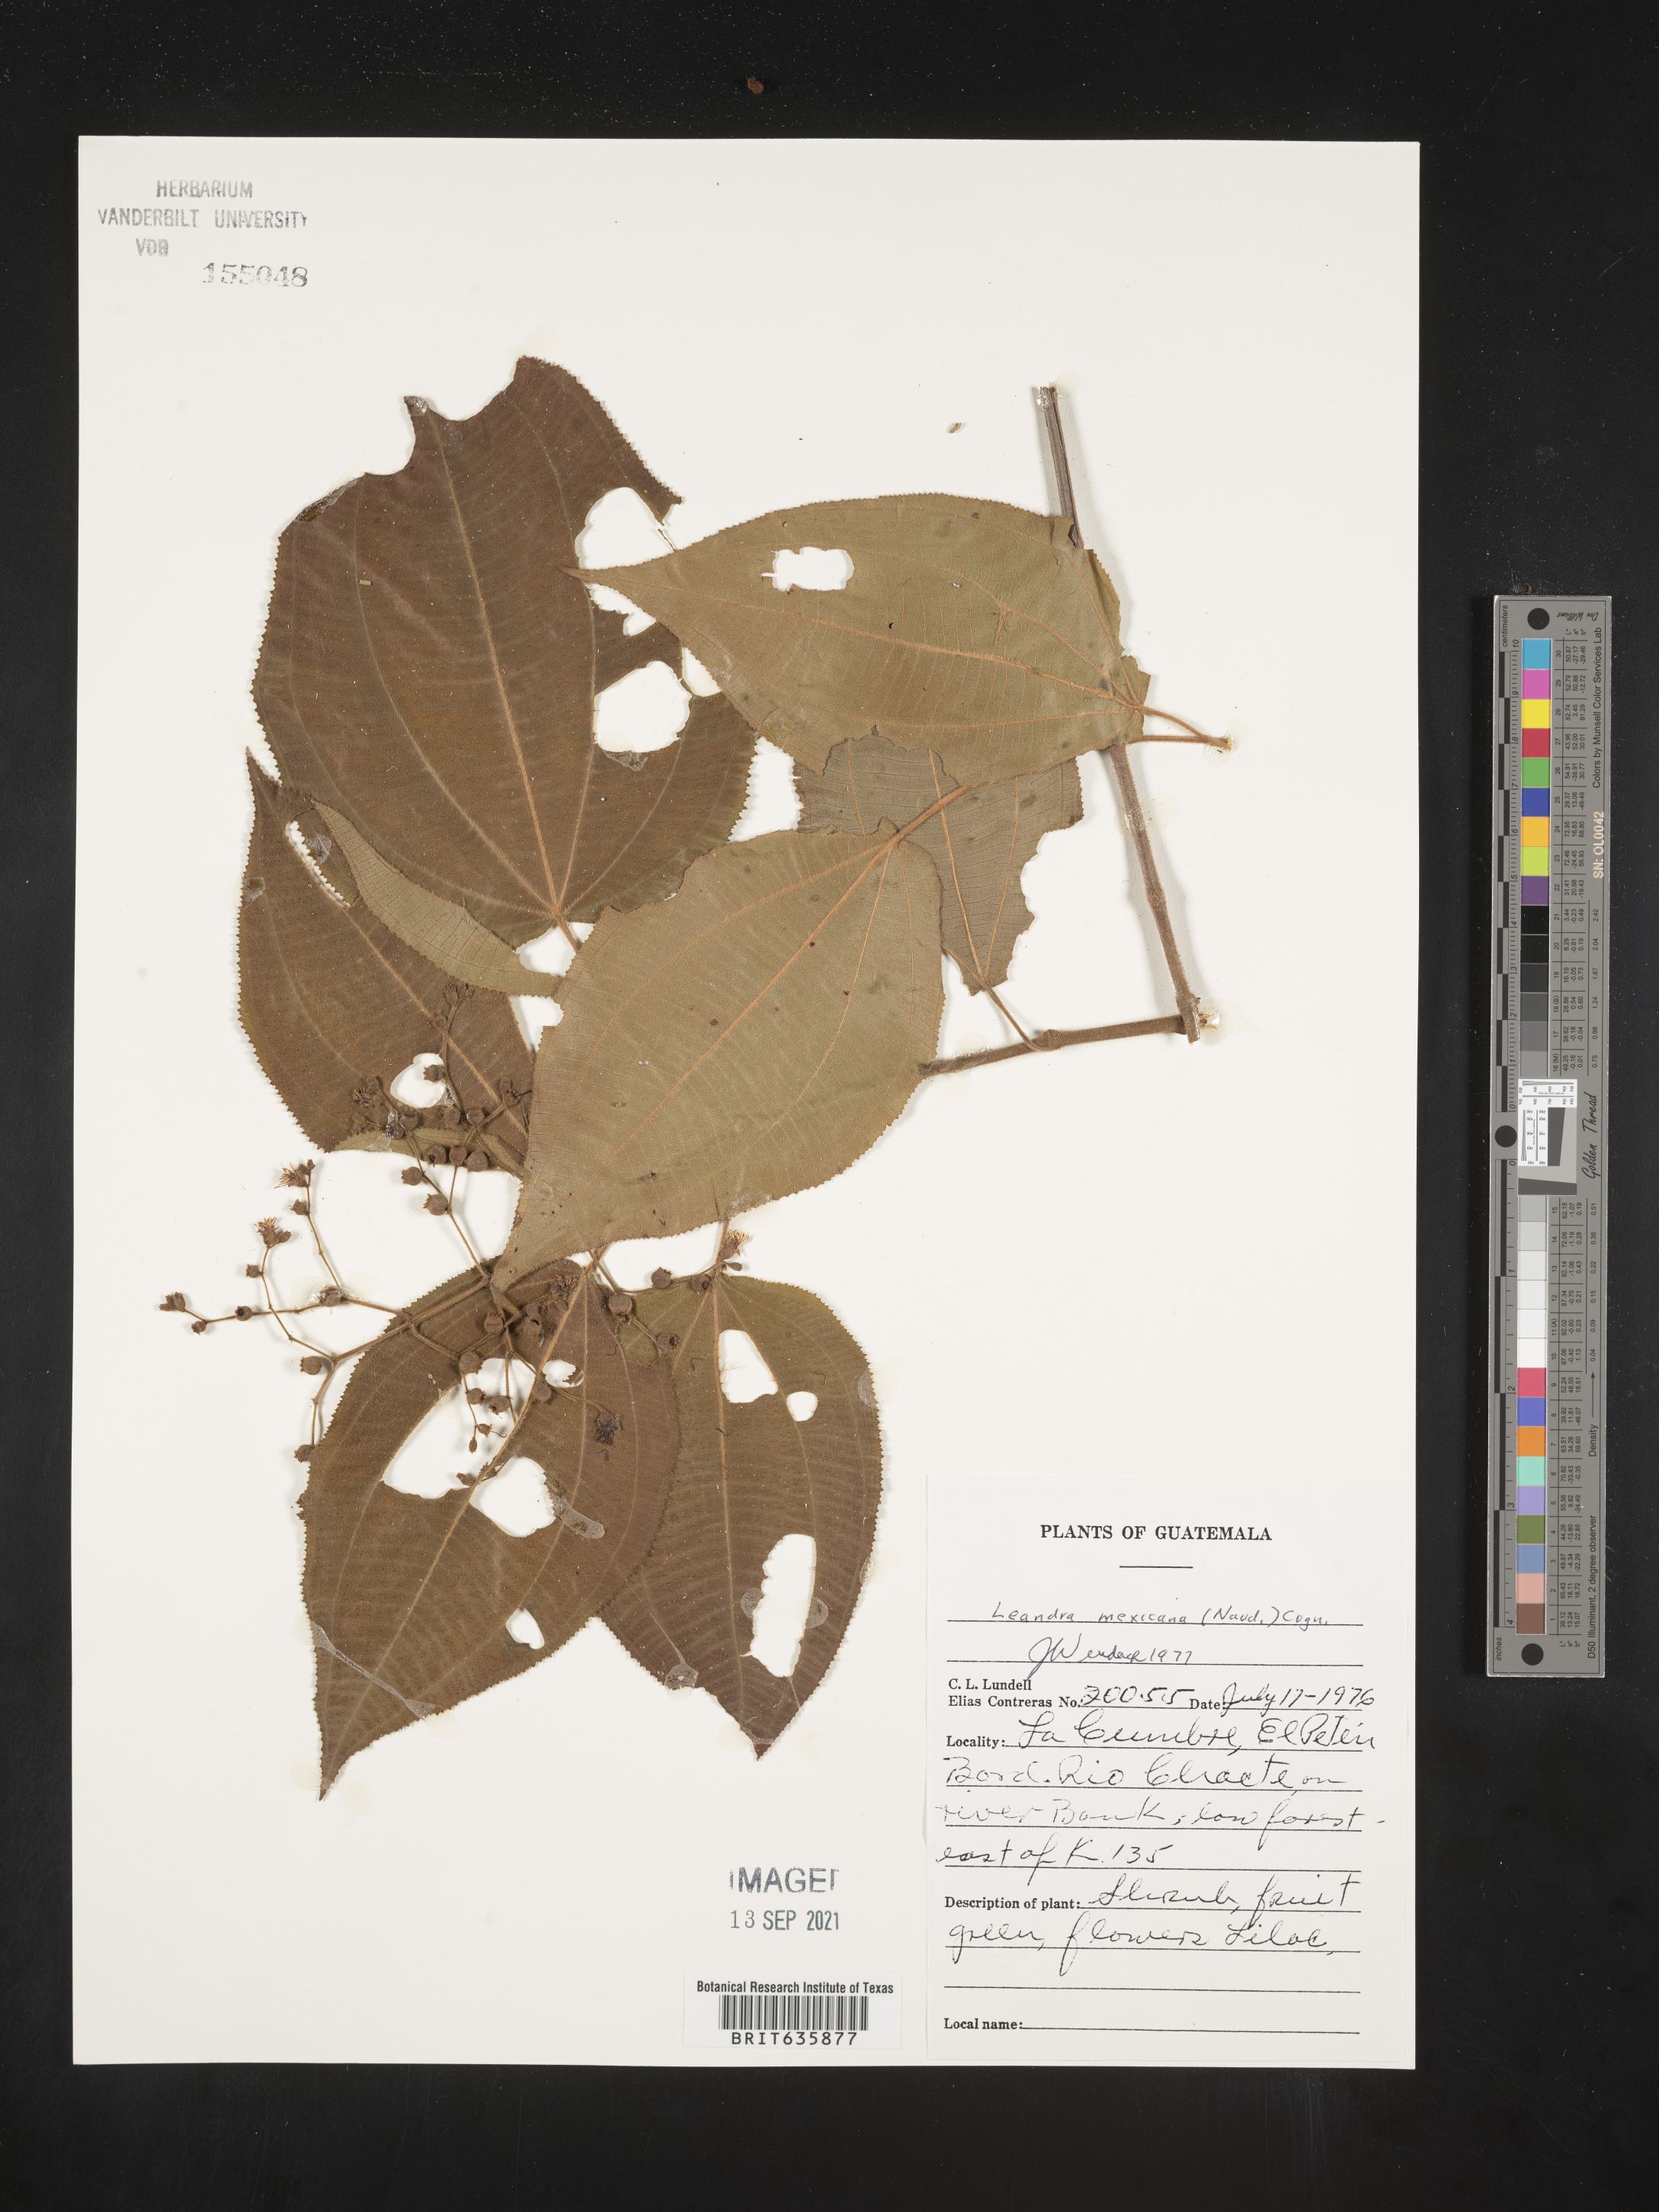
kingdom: Plantae
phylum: Tracheophyta
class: Magnoliopsida
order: Myrtales
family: Melastomataceae
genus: Miconia
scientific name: Miconia
